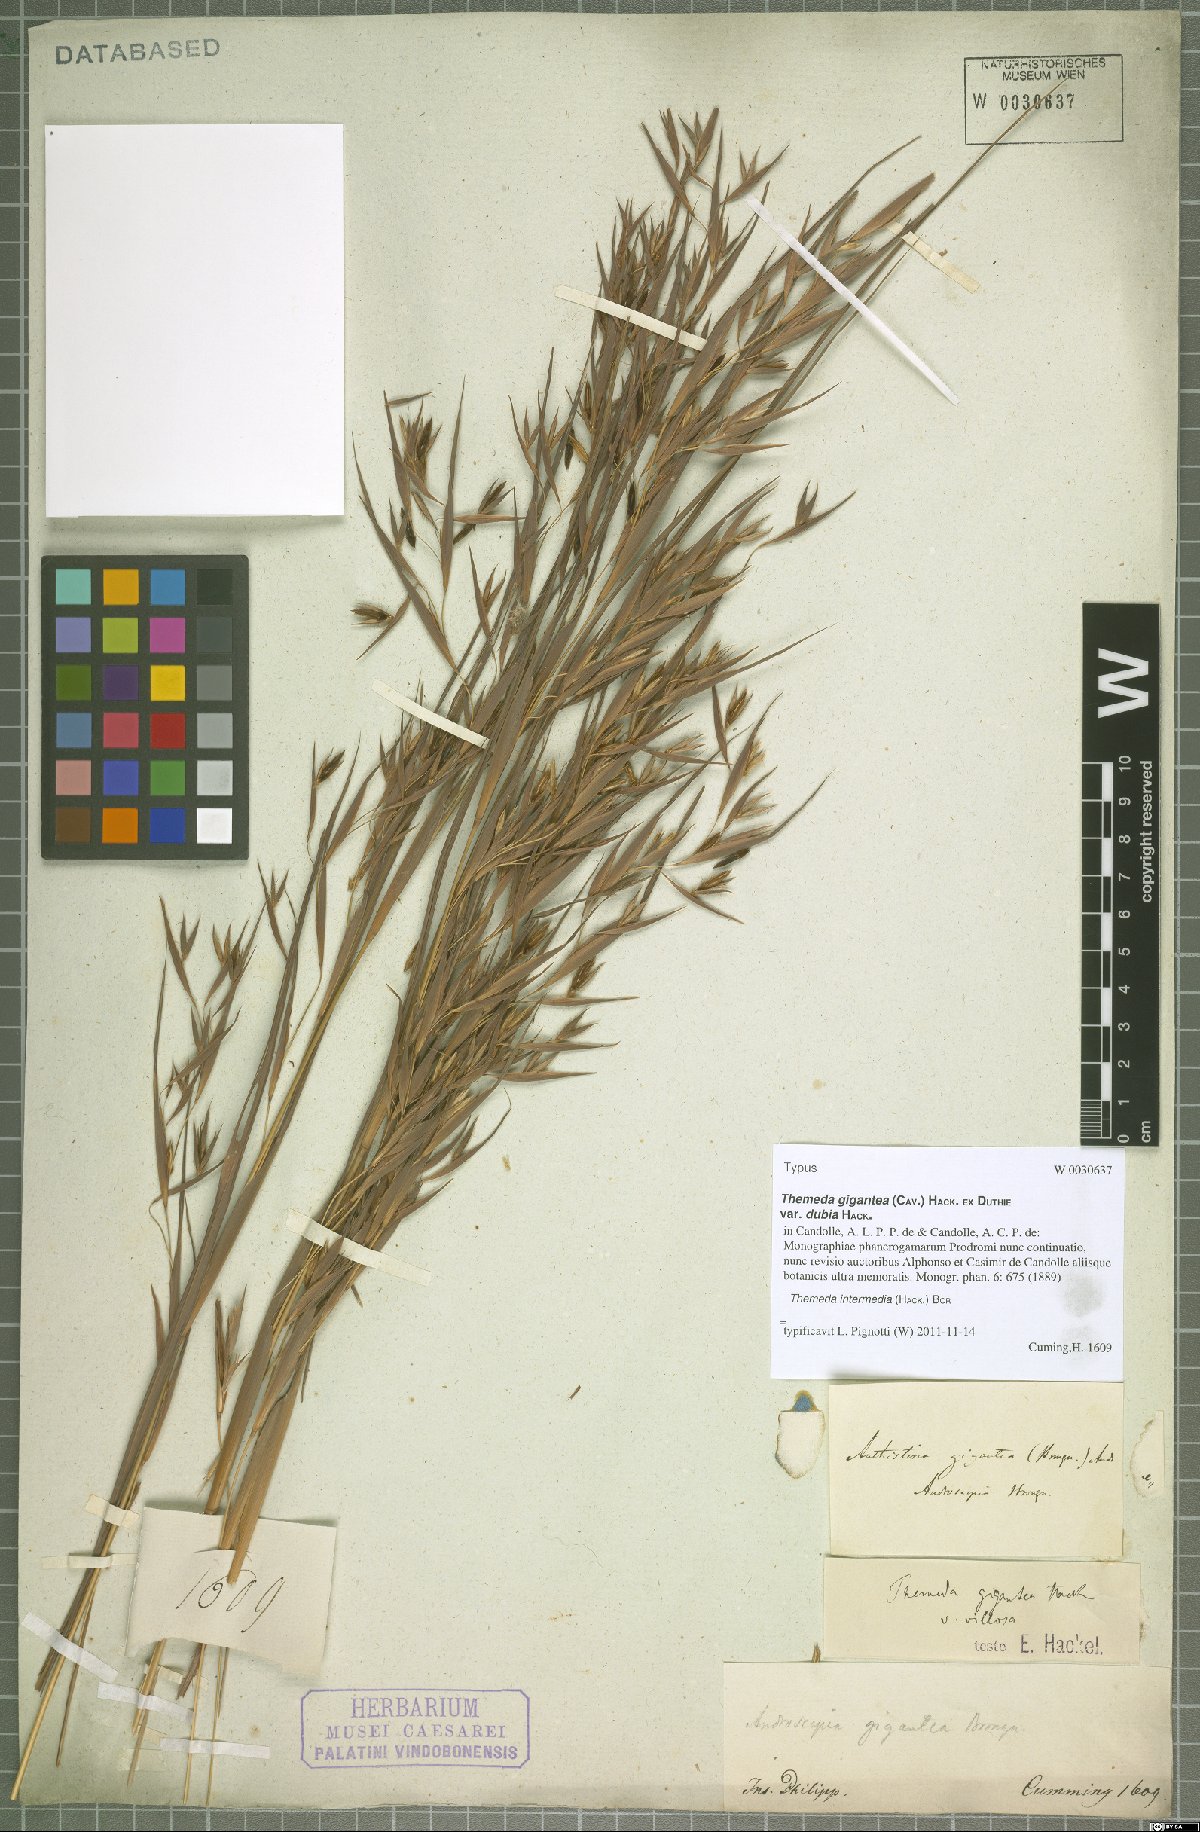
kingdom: Plantae
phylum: Tracheophyta
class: Liliopsida
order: Poales
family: Poaceae
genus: Themeda
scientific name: Themeda intermedia
